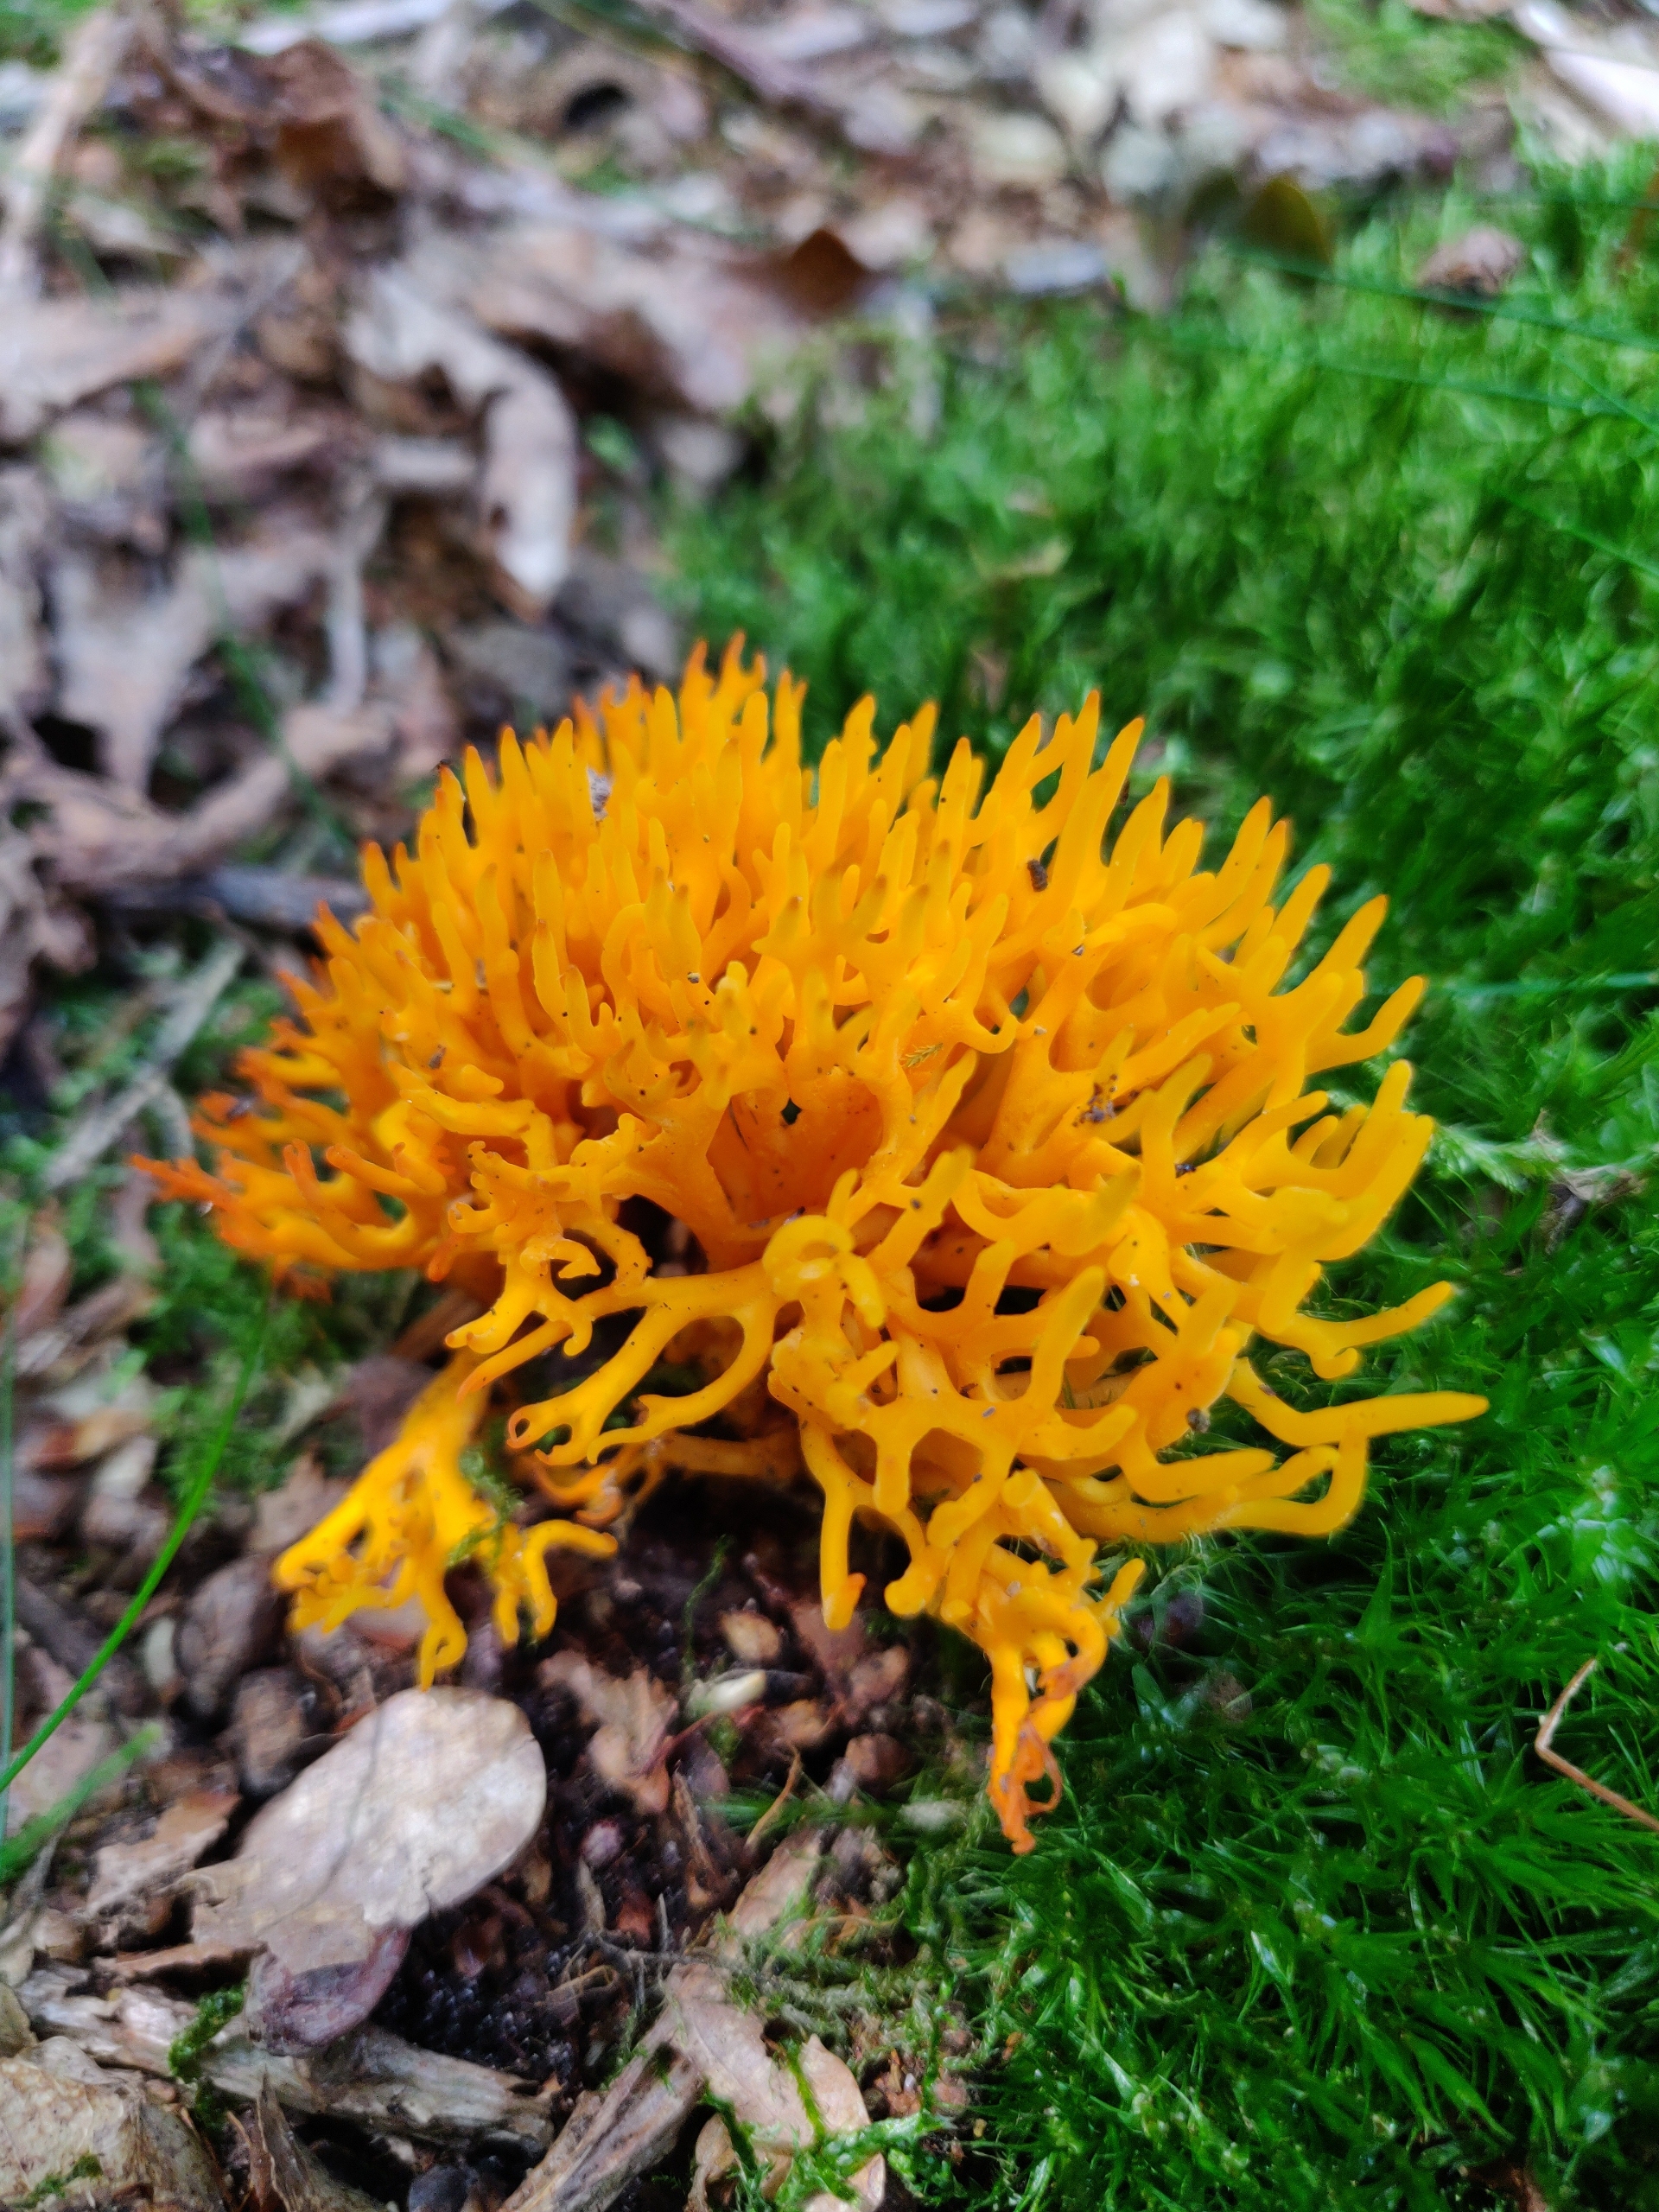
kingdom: Fungi
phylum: Basidiomycota
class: Dacrymycetes
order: Dacrymycetales
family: Dacrymycetaceae
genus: Calocera
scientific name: Calocera viscosa
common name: Almindelig guldgaffel
